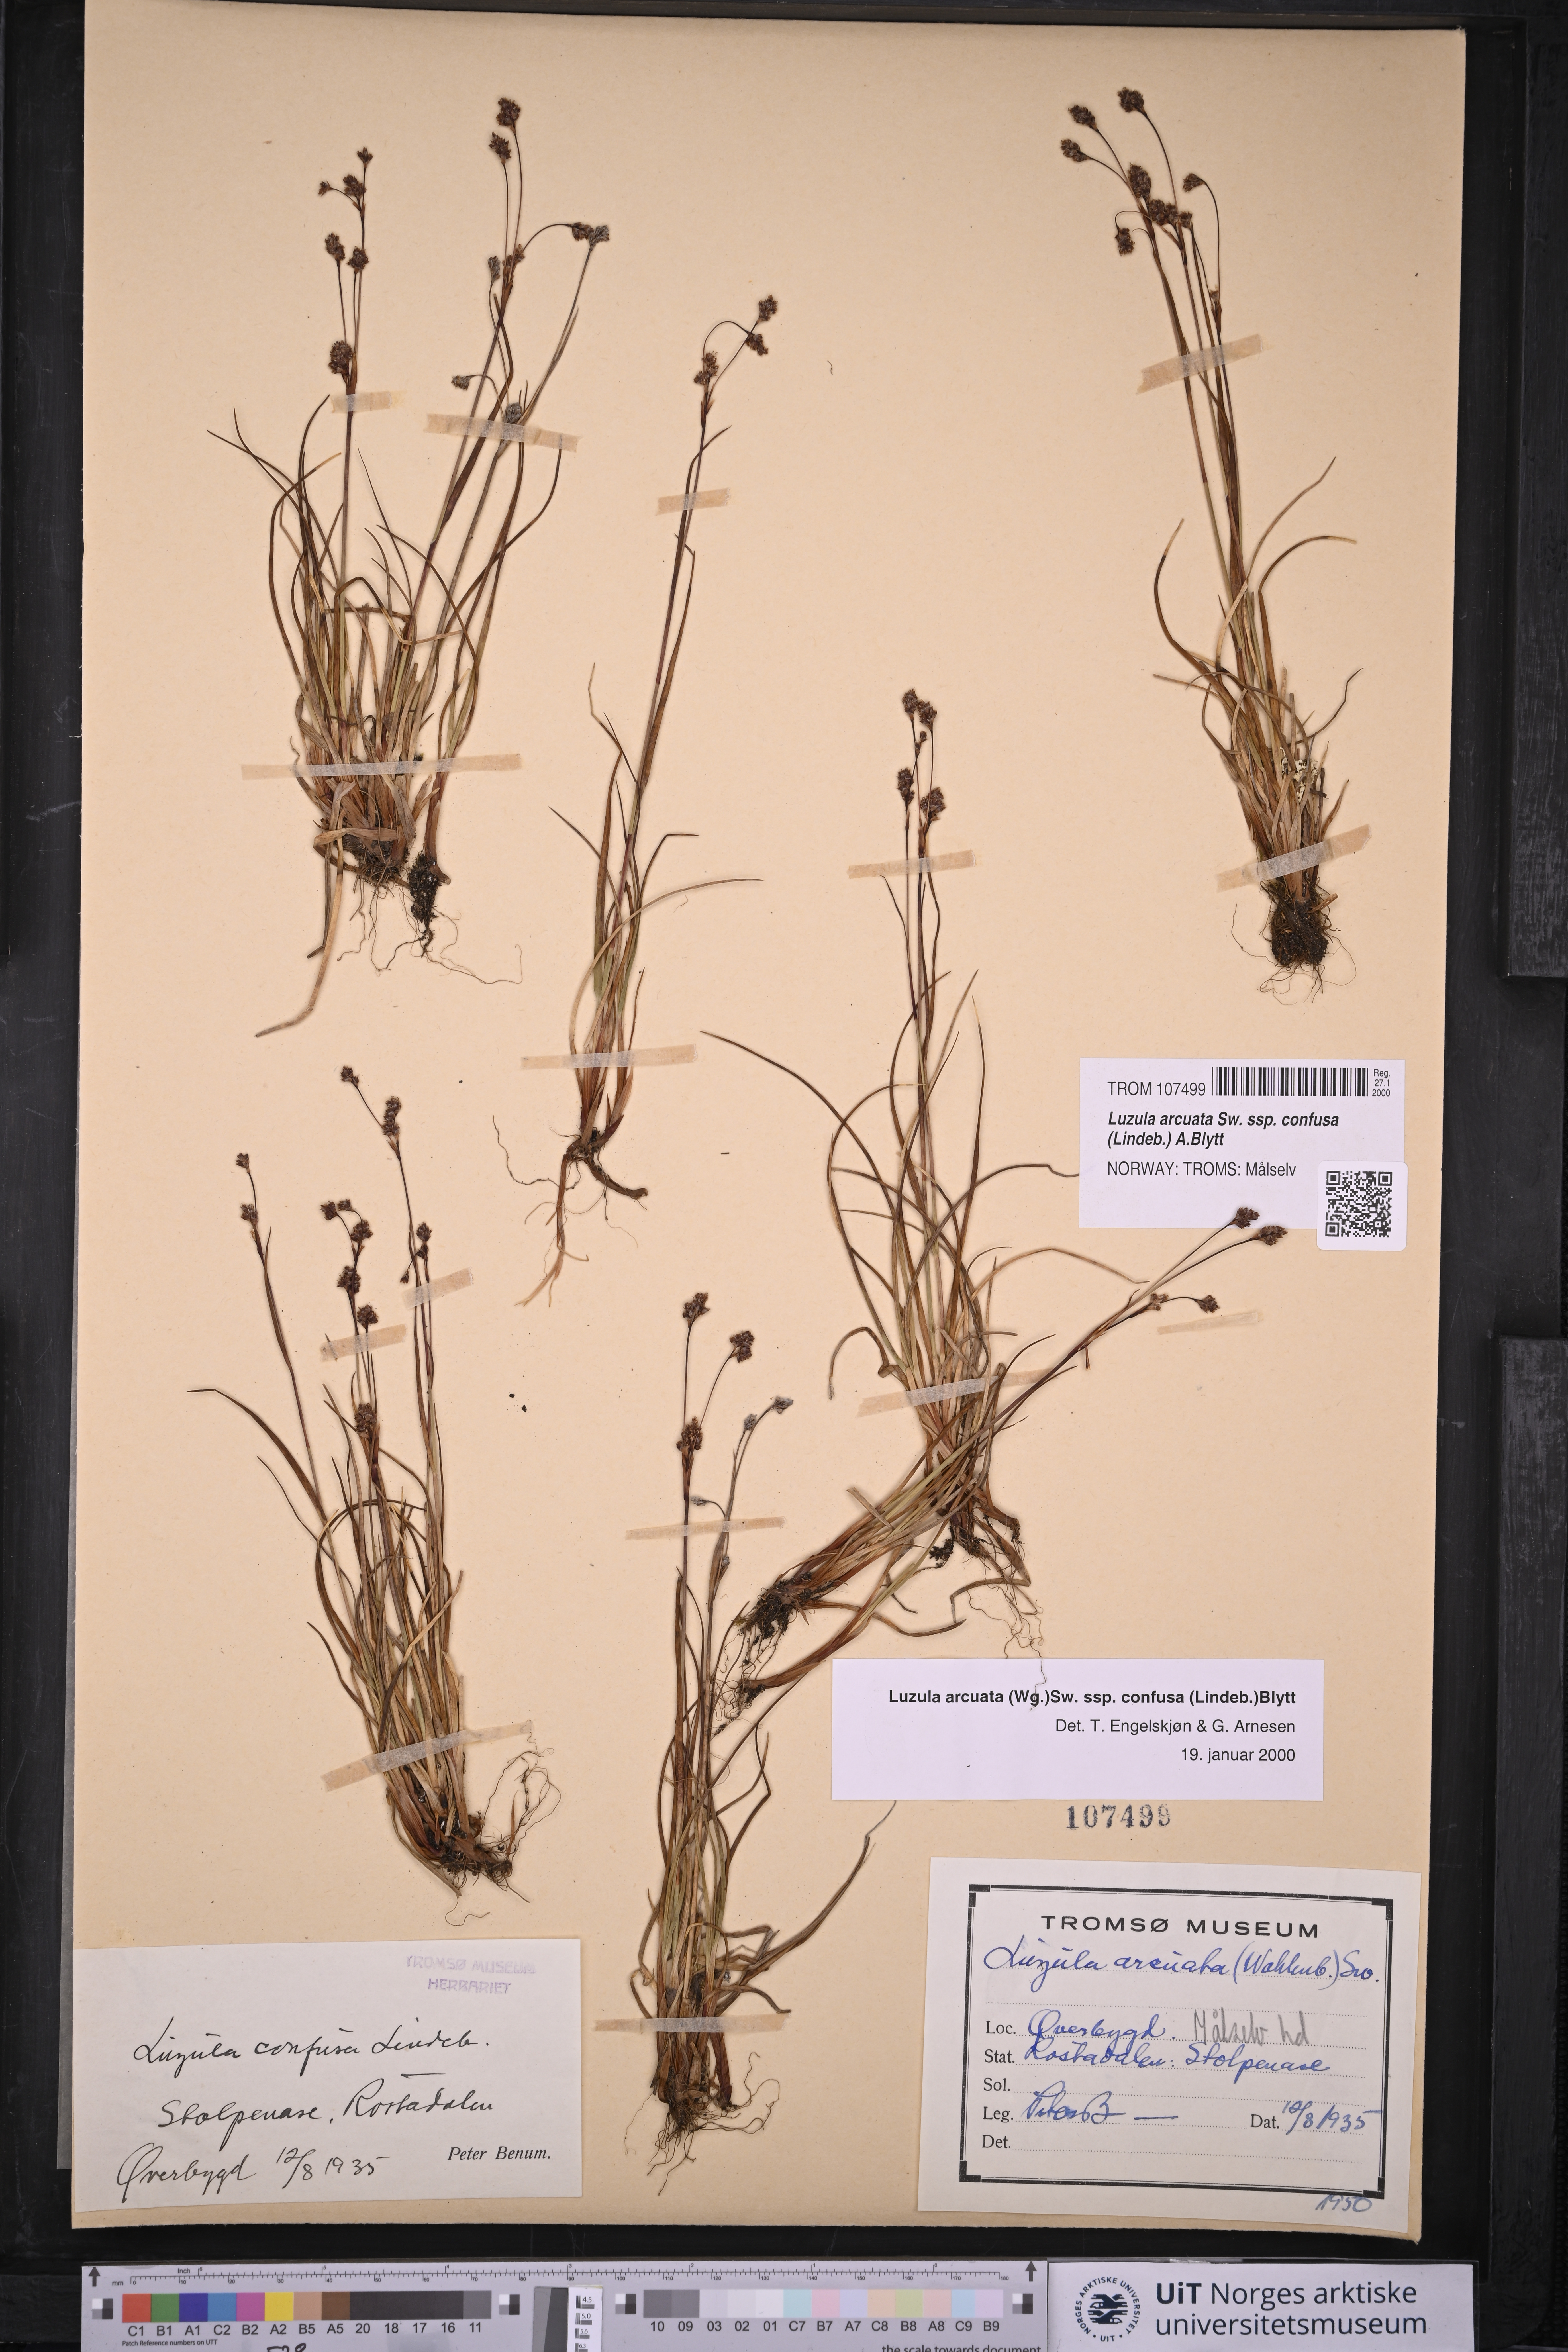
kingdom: Plantae
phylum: Tracheophyta
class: Liliopsida
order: Poales
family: Juncaceae
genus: Luzula
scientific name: Luzula confusa
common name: Northern wood rush
